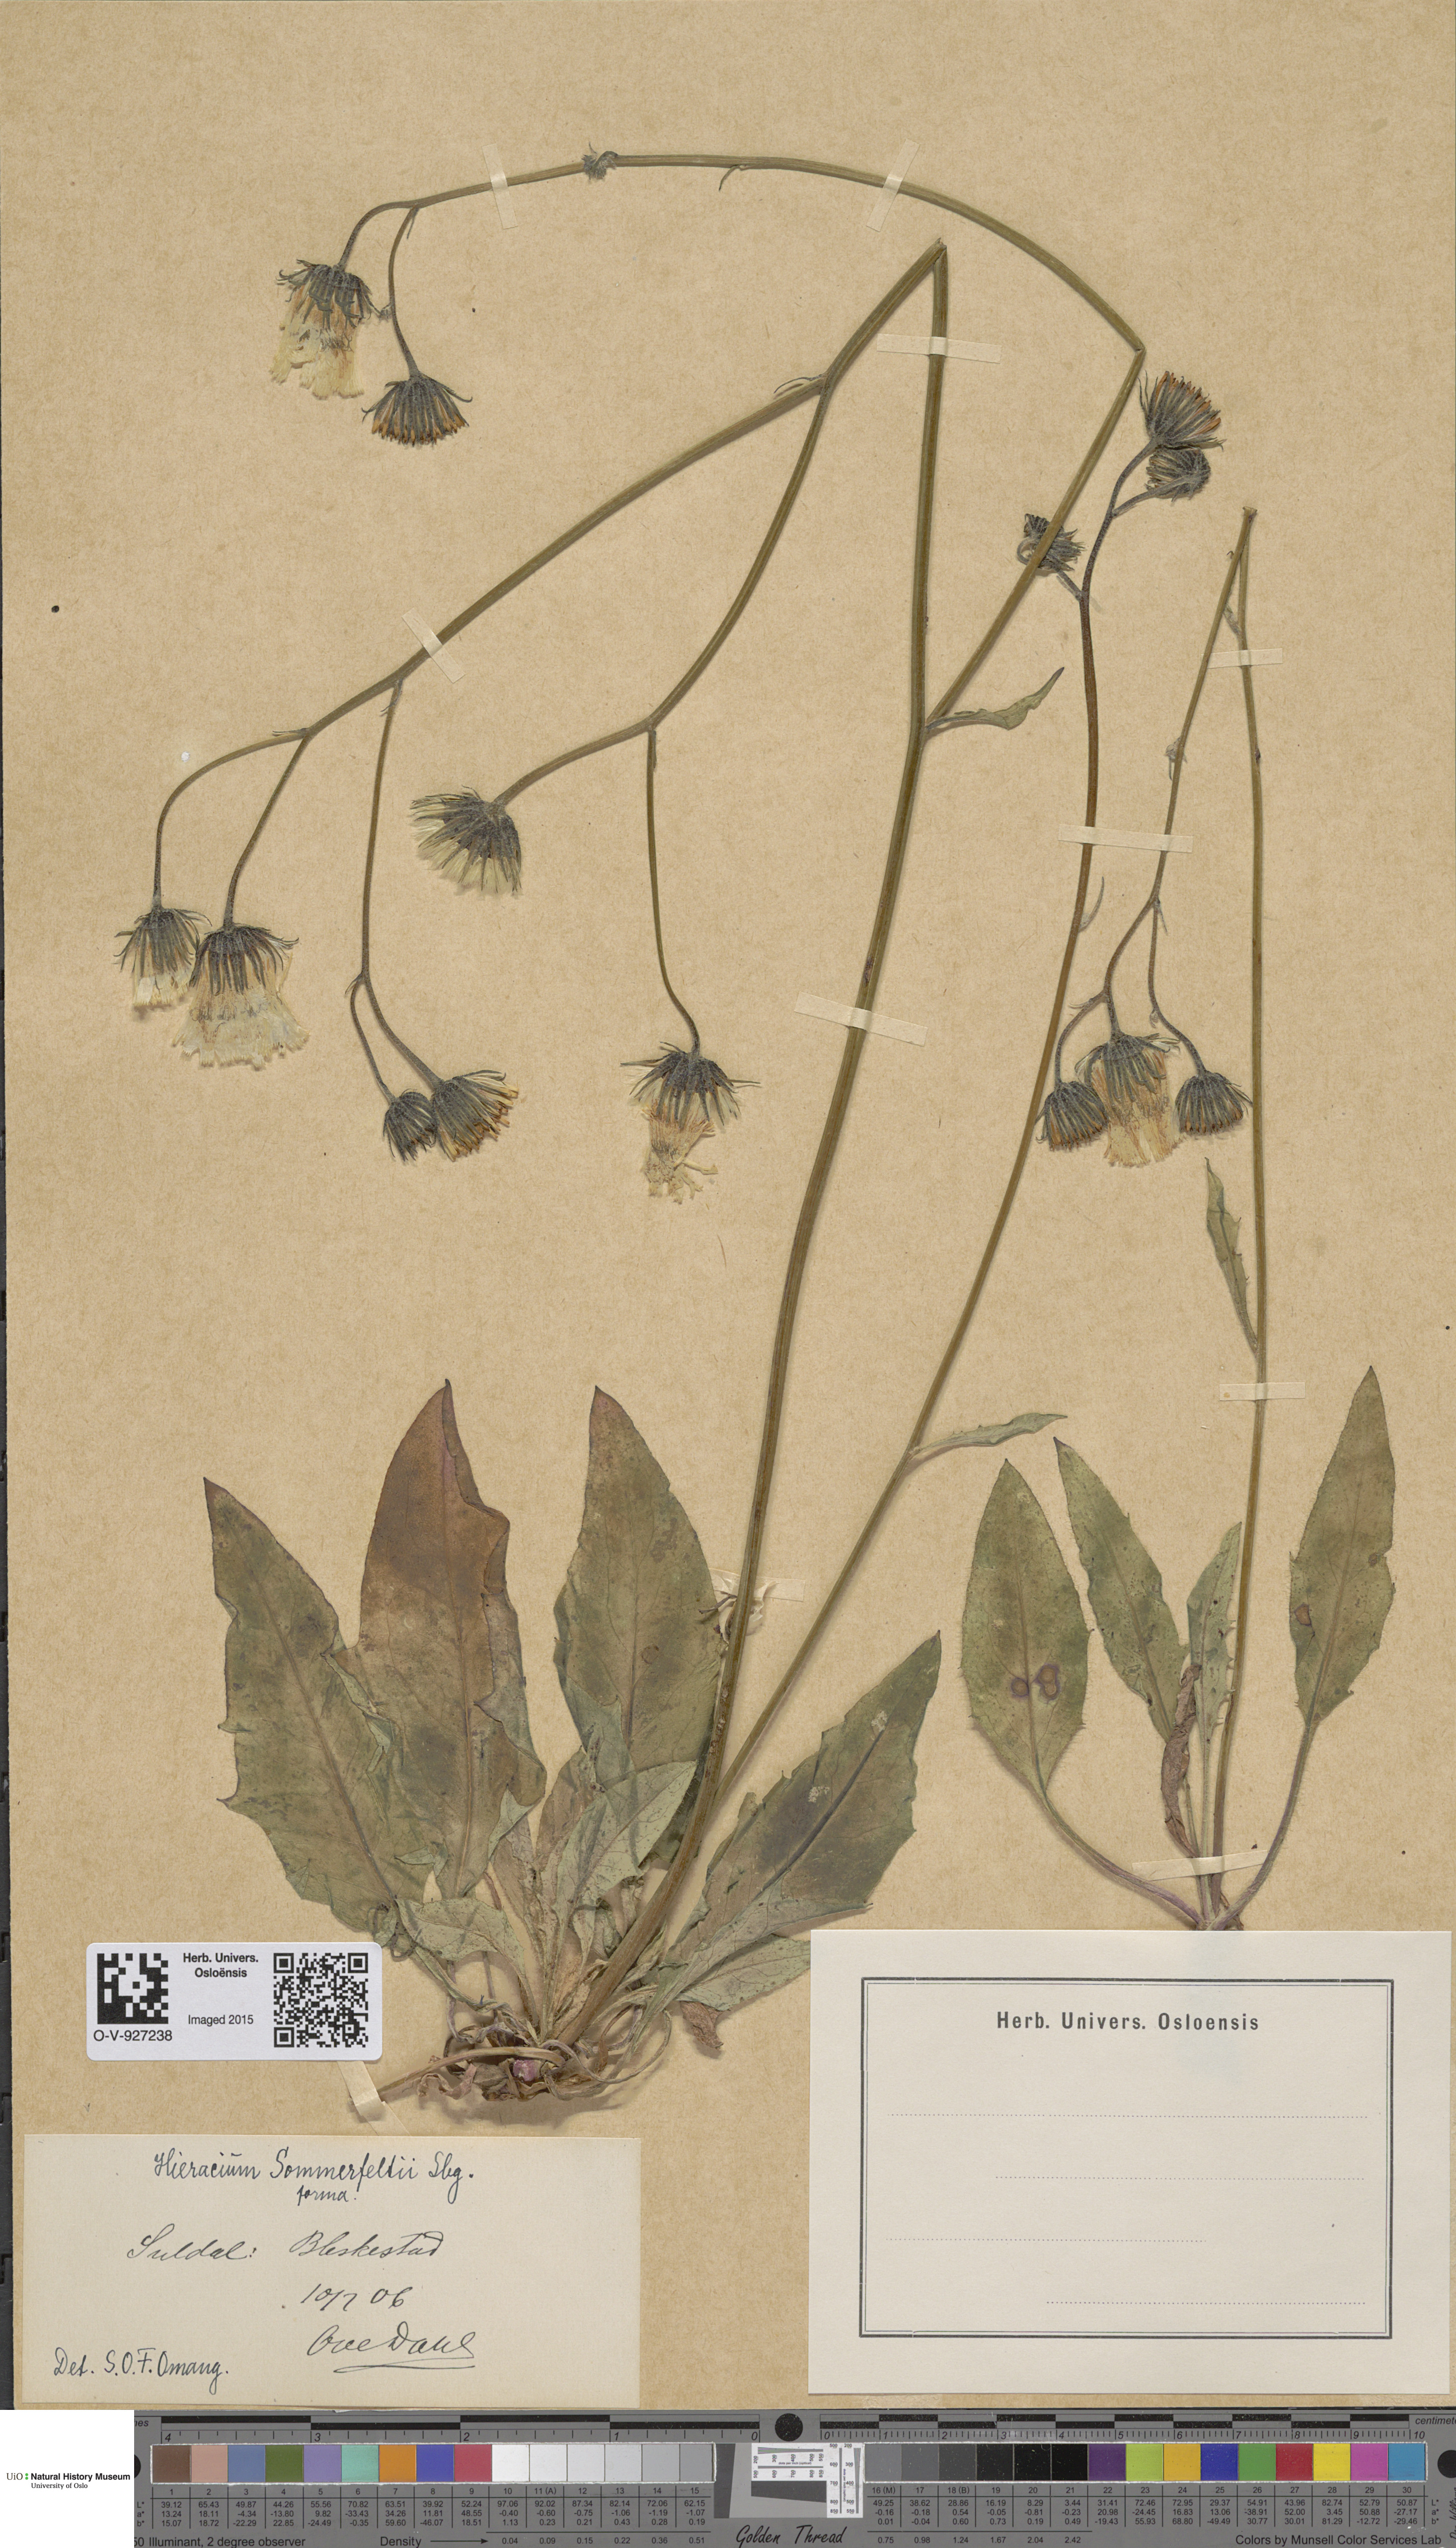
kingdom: Plantae
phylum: Tracheophyta
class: Magnoliopsida
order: Asterales
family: Asteraceae
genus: Hieracium
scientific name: Hieracium sommerfeltii
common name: Sommerfelt's hawkweed
